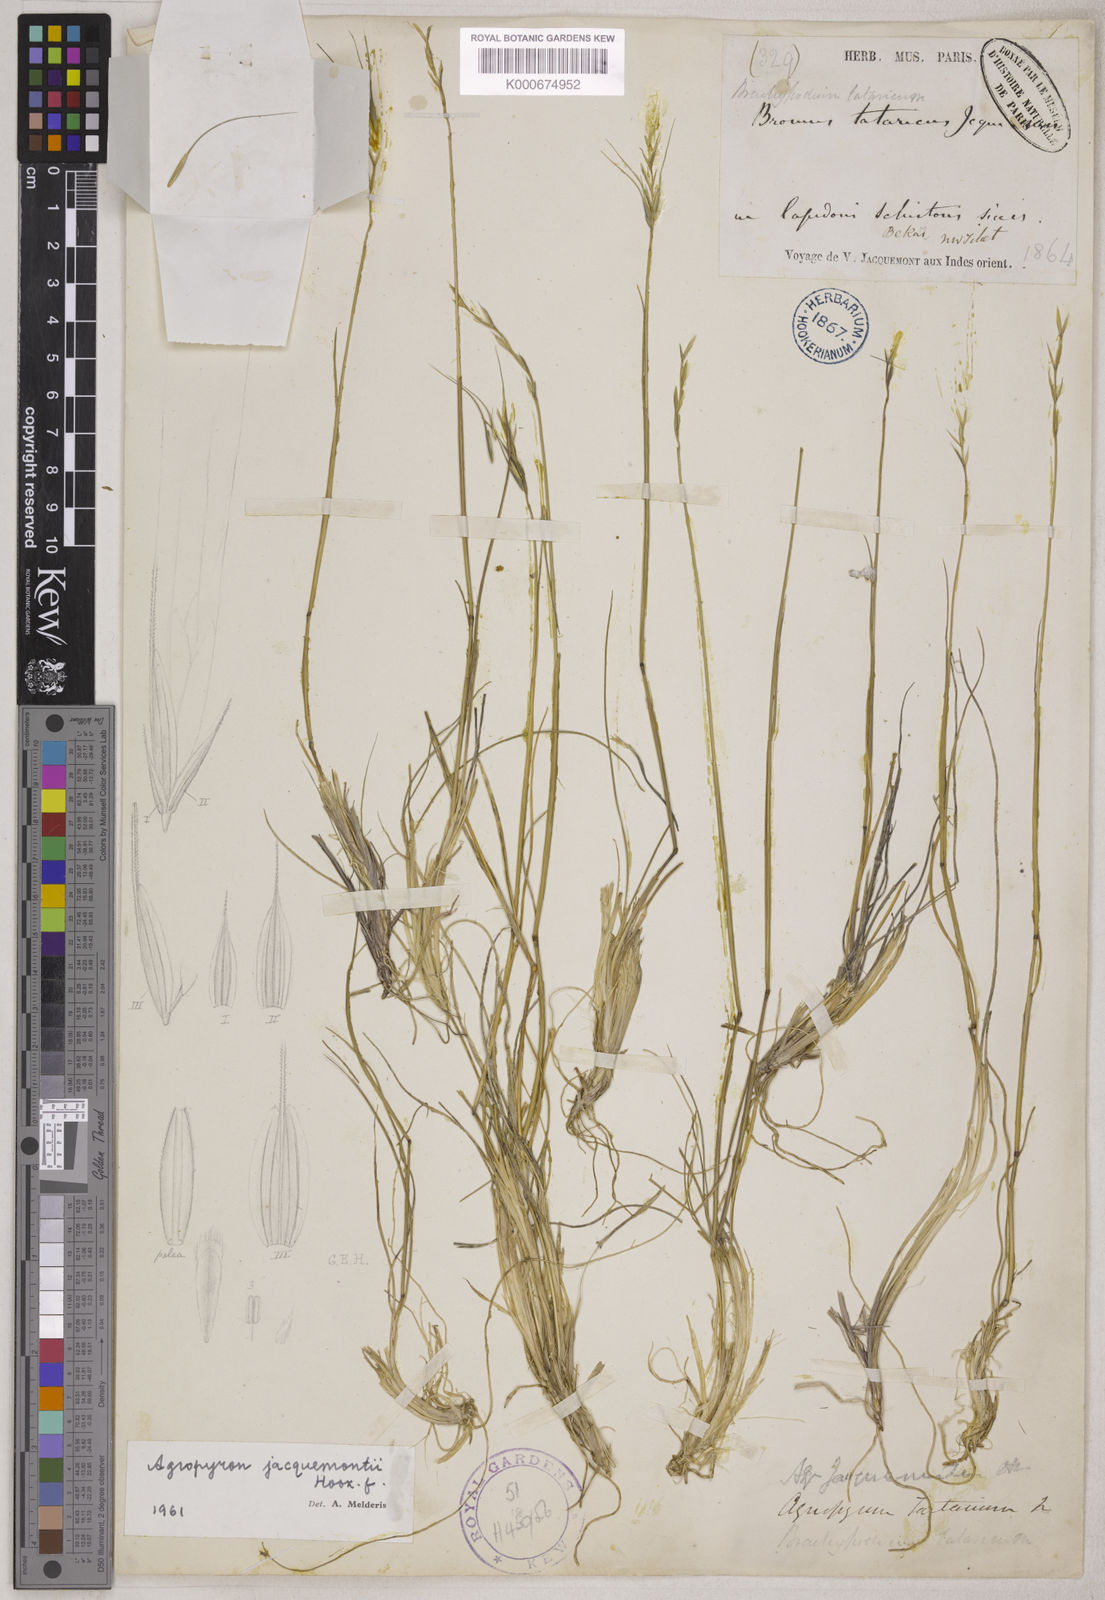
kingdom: Plantae
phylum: Tracheophyta
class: Liliopsida
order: Poales
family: Poaceae
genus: Elymus
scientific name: Elymus jacquemontii
